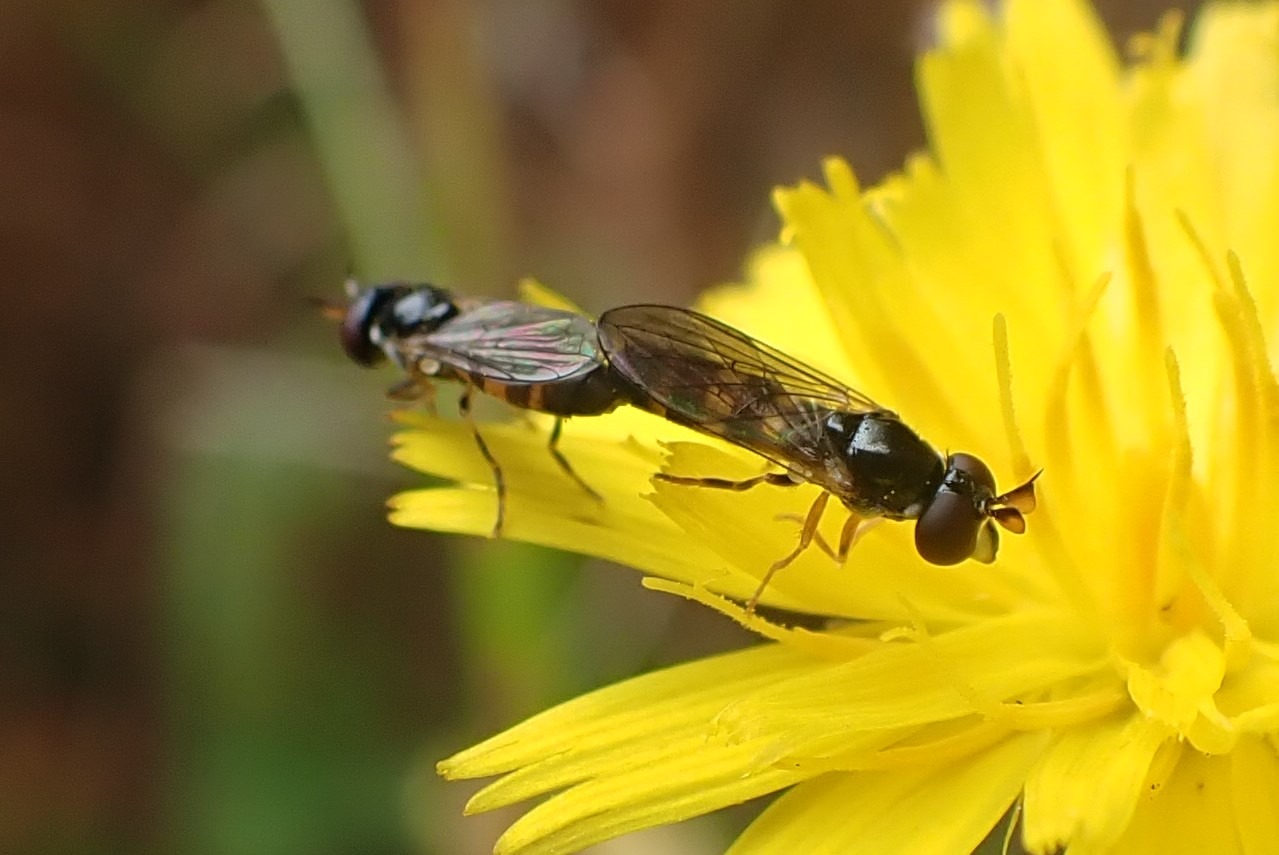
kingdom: Animalia
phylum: Arthropoda
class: Insecta
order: Diptera
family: Syrphidae
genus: Pelecocera
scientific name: Pelecocera tricincta
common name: Bredhorn-svirreflue
